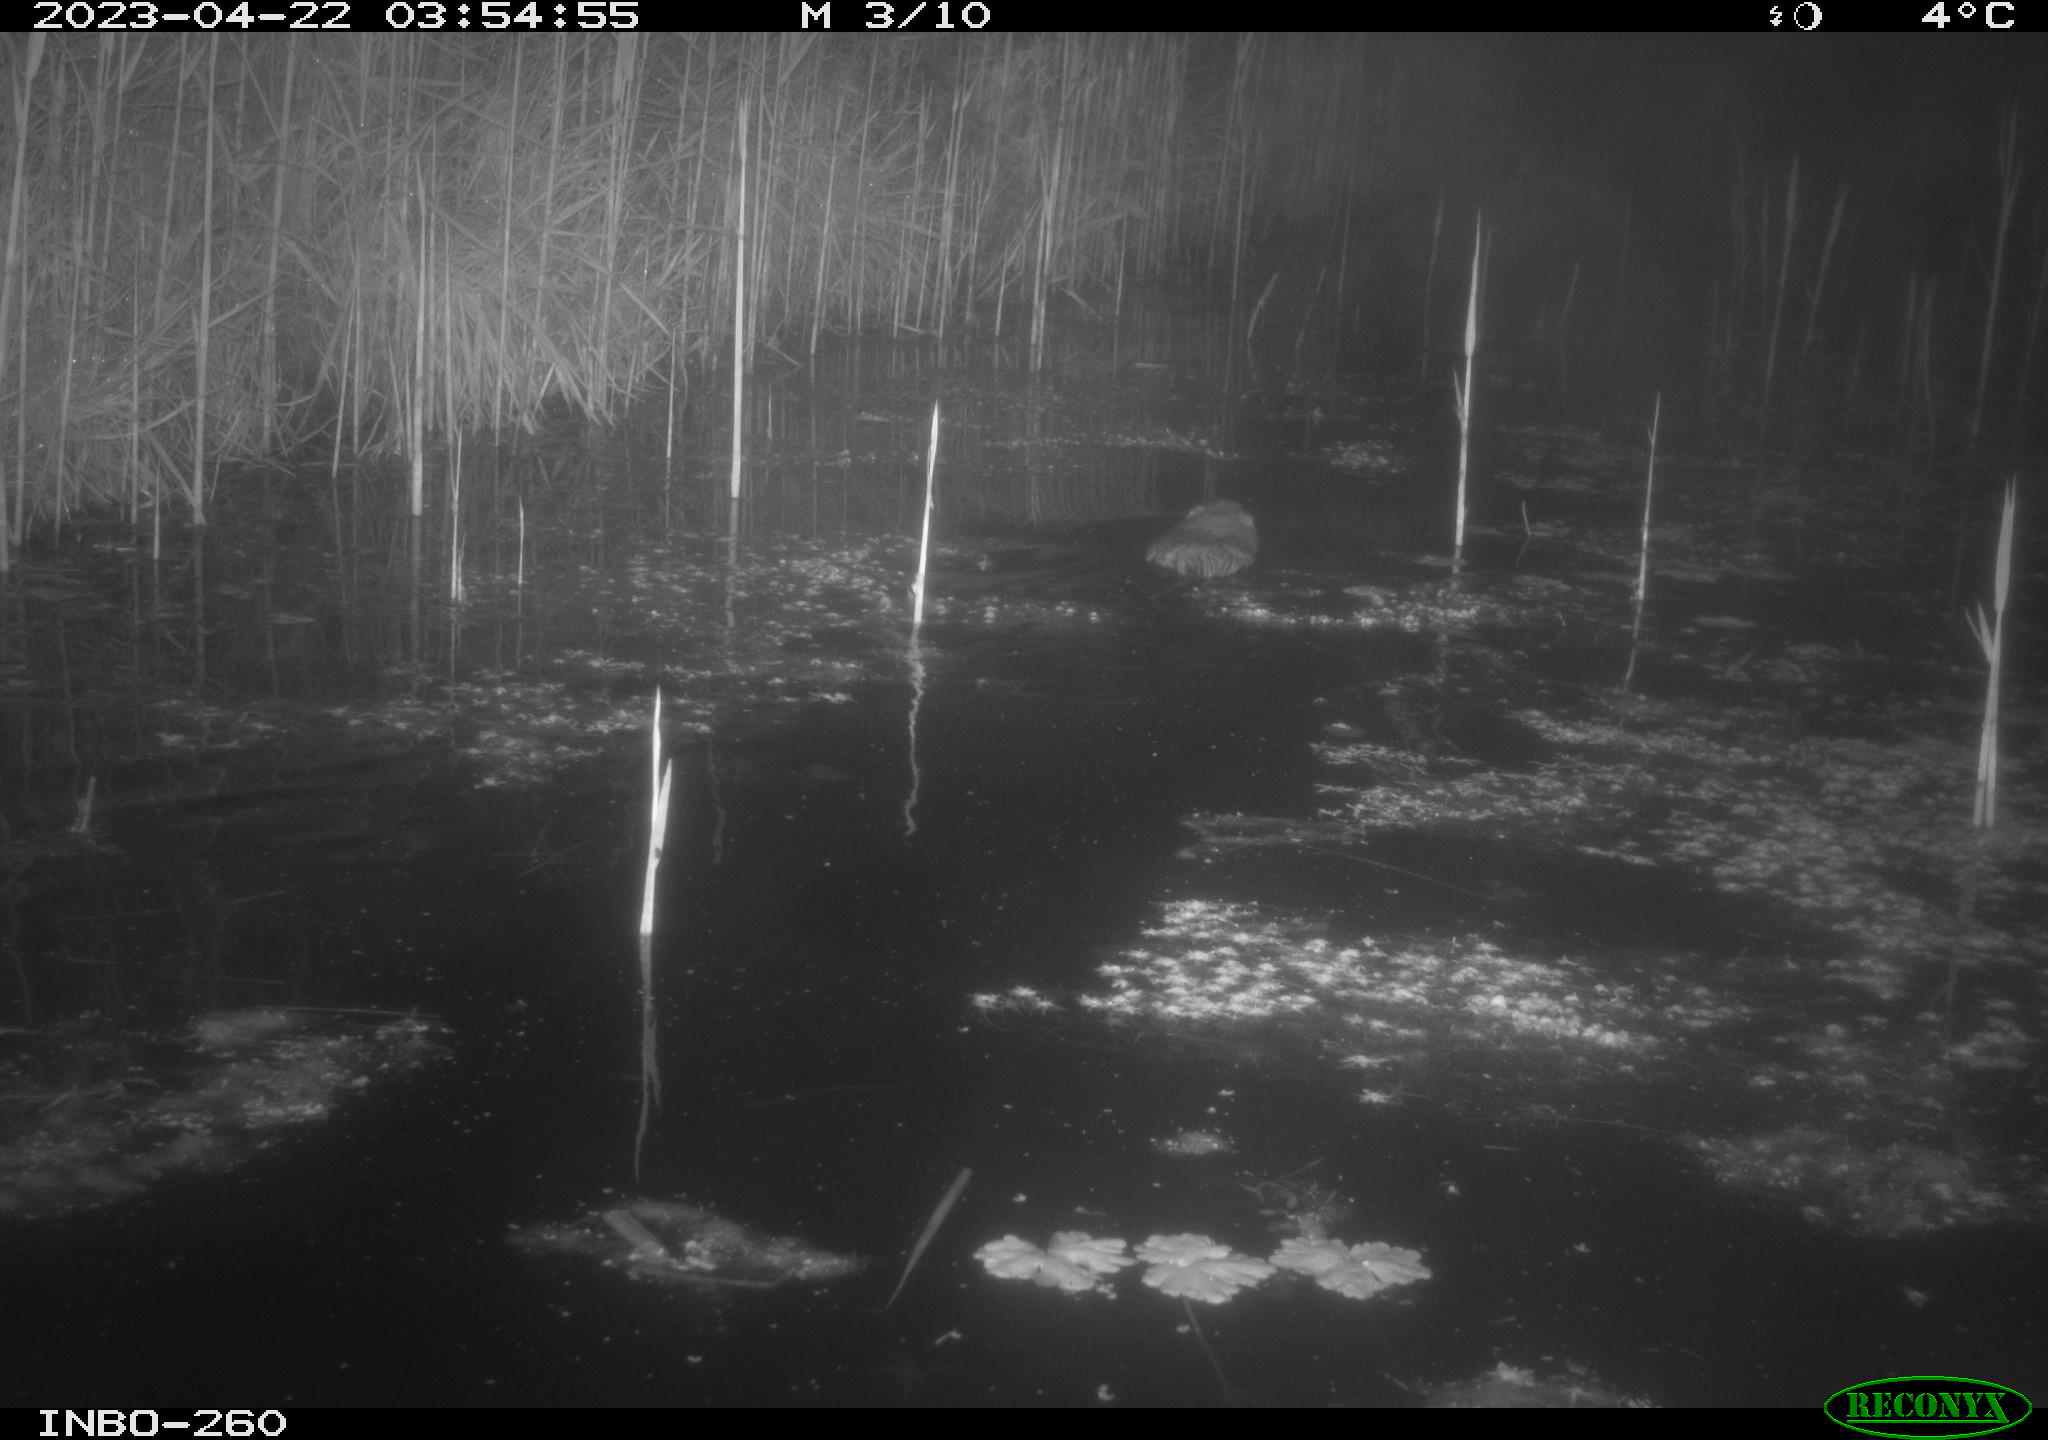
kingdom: Animalia
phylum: Chordata
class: Mammalia
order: Rodentia
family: Cricetidae
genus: Ondatra
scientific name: Ondatra zibethicus
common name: Muskrat
